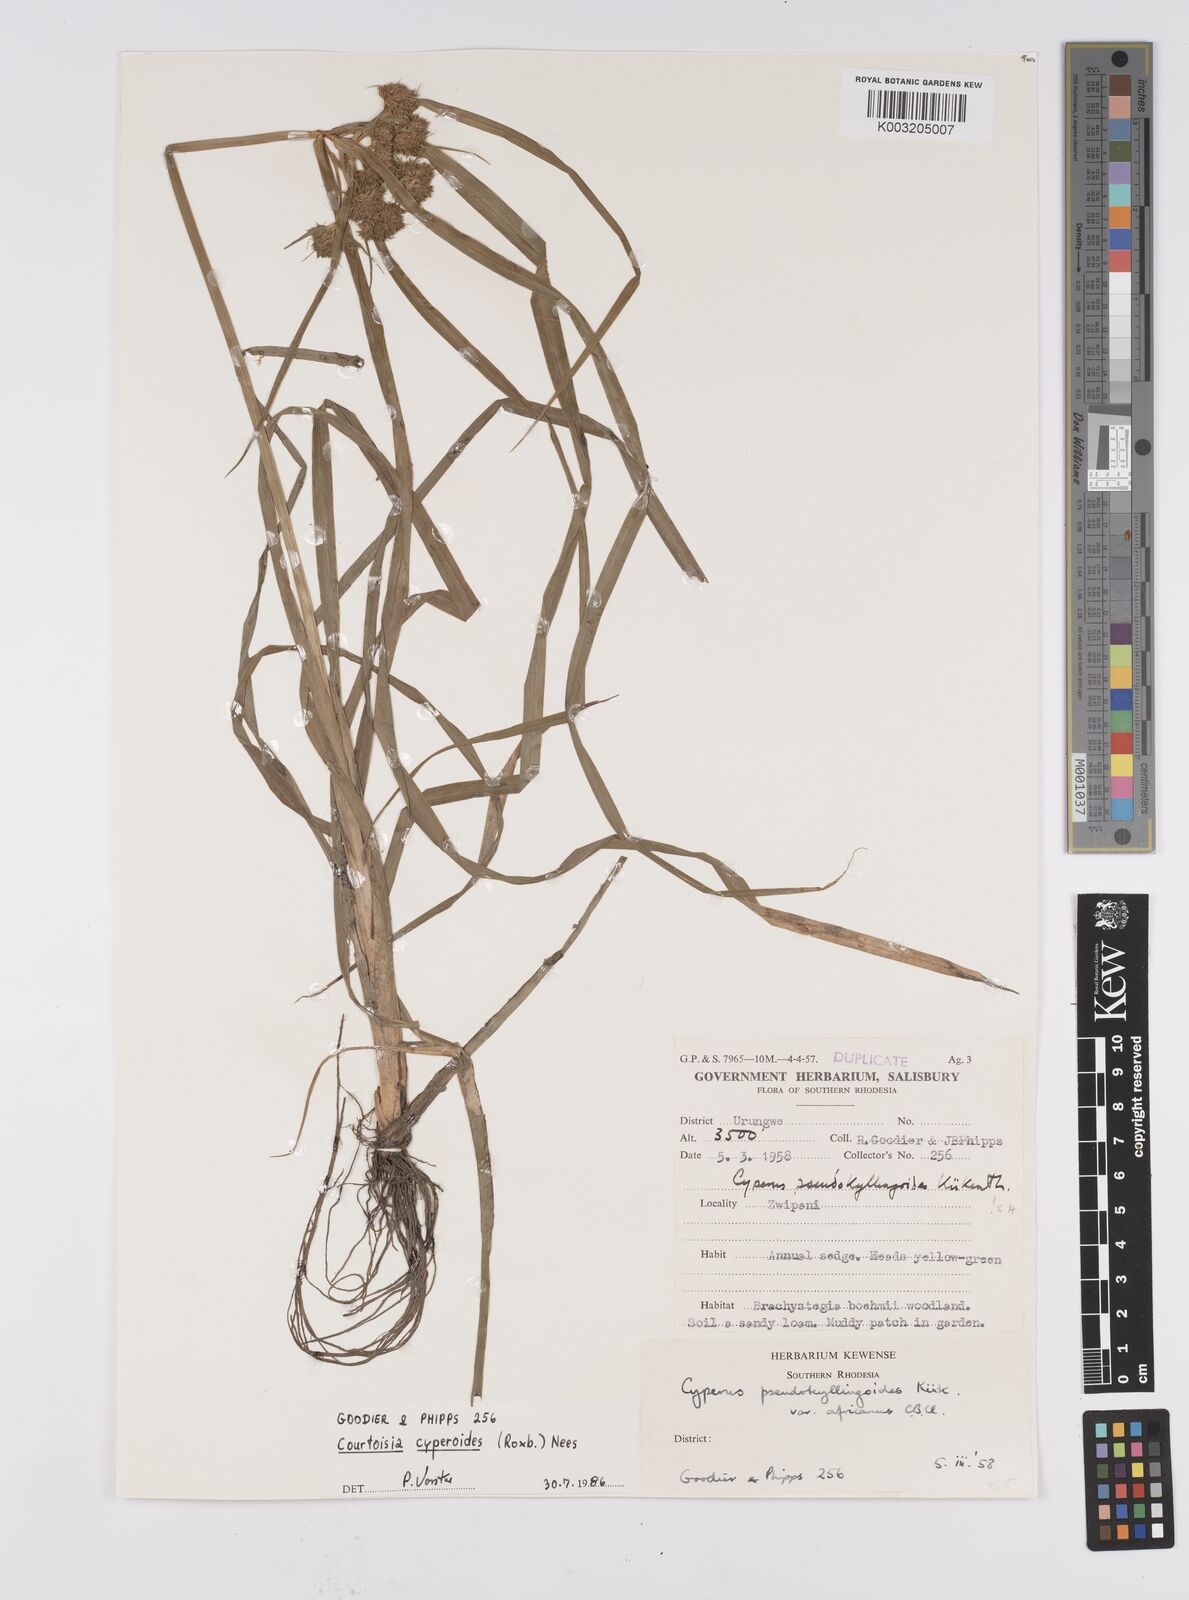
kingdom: Plantae
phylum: Tracheophyta
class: Liliopsida
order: Poales
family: Cyperaceae
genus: Cyperus
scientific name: Cyperus cyperoides
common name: Pacific island flat sedge
